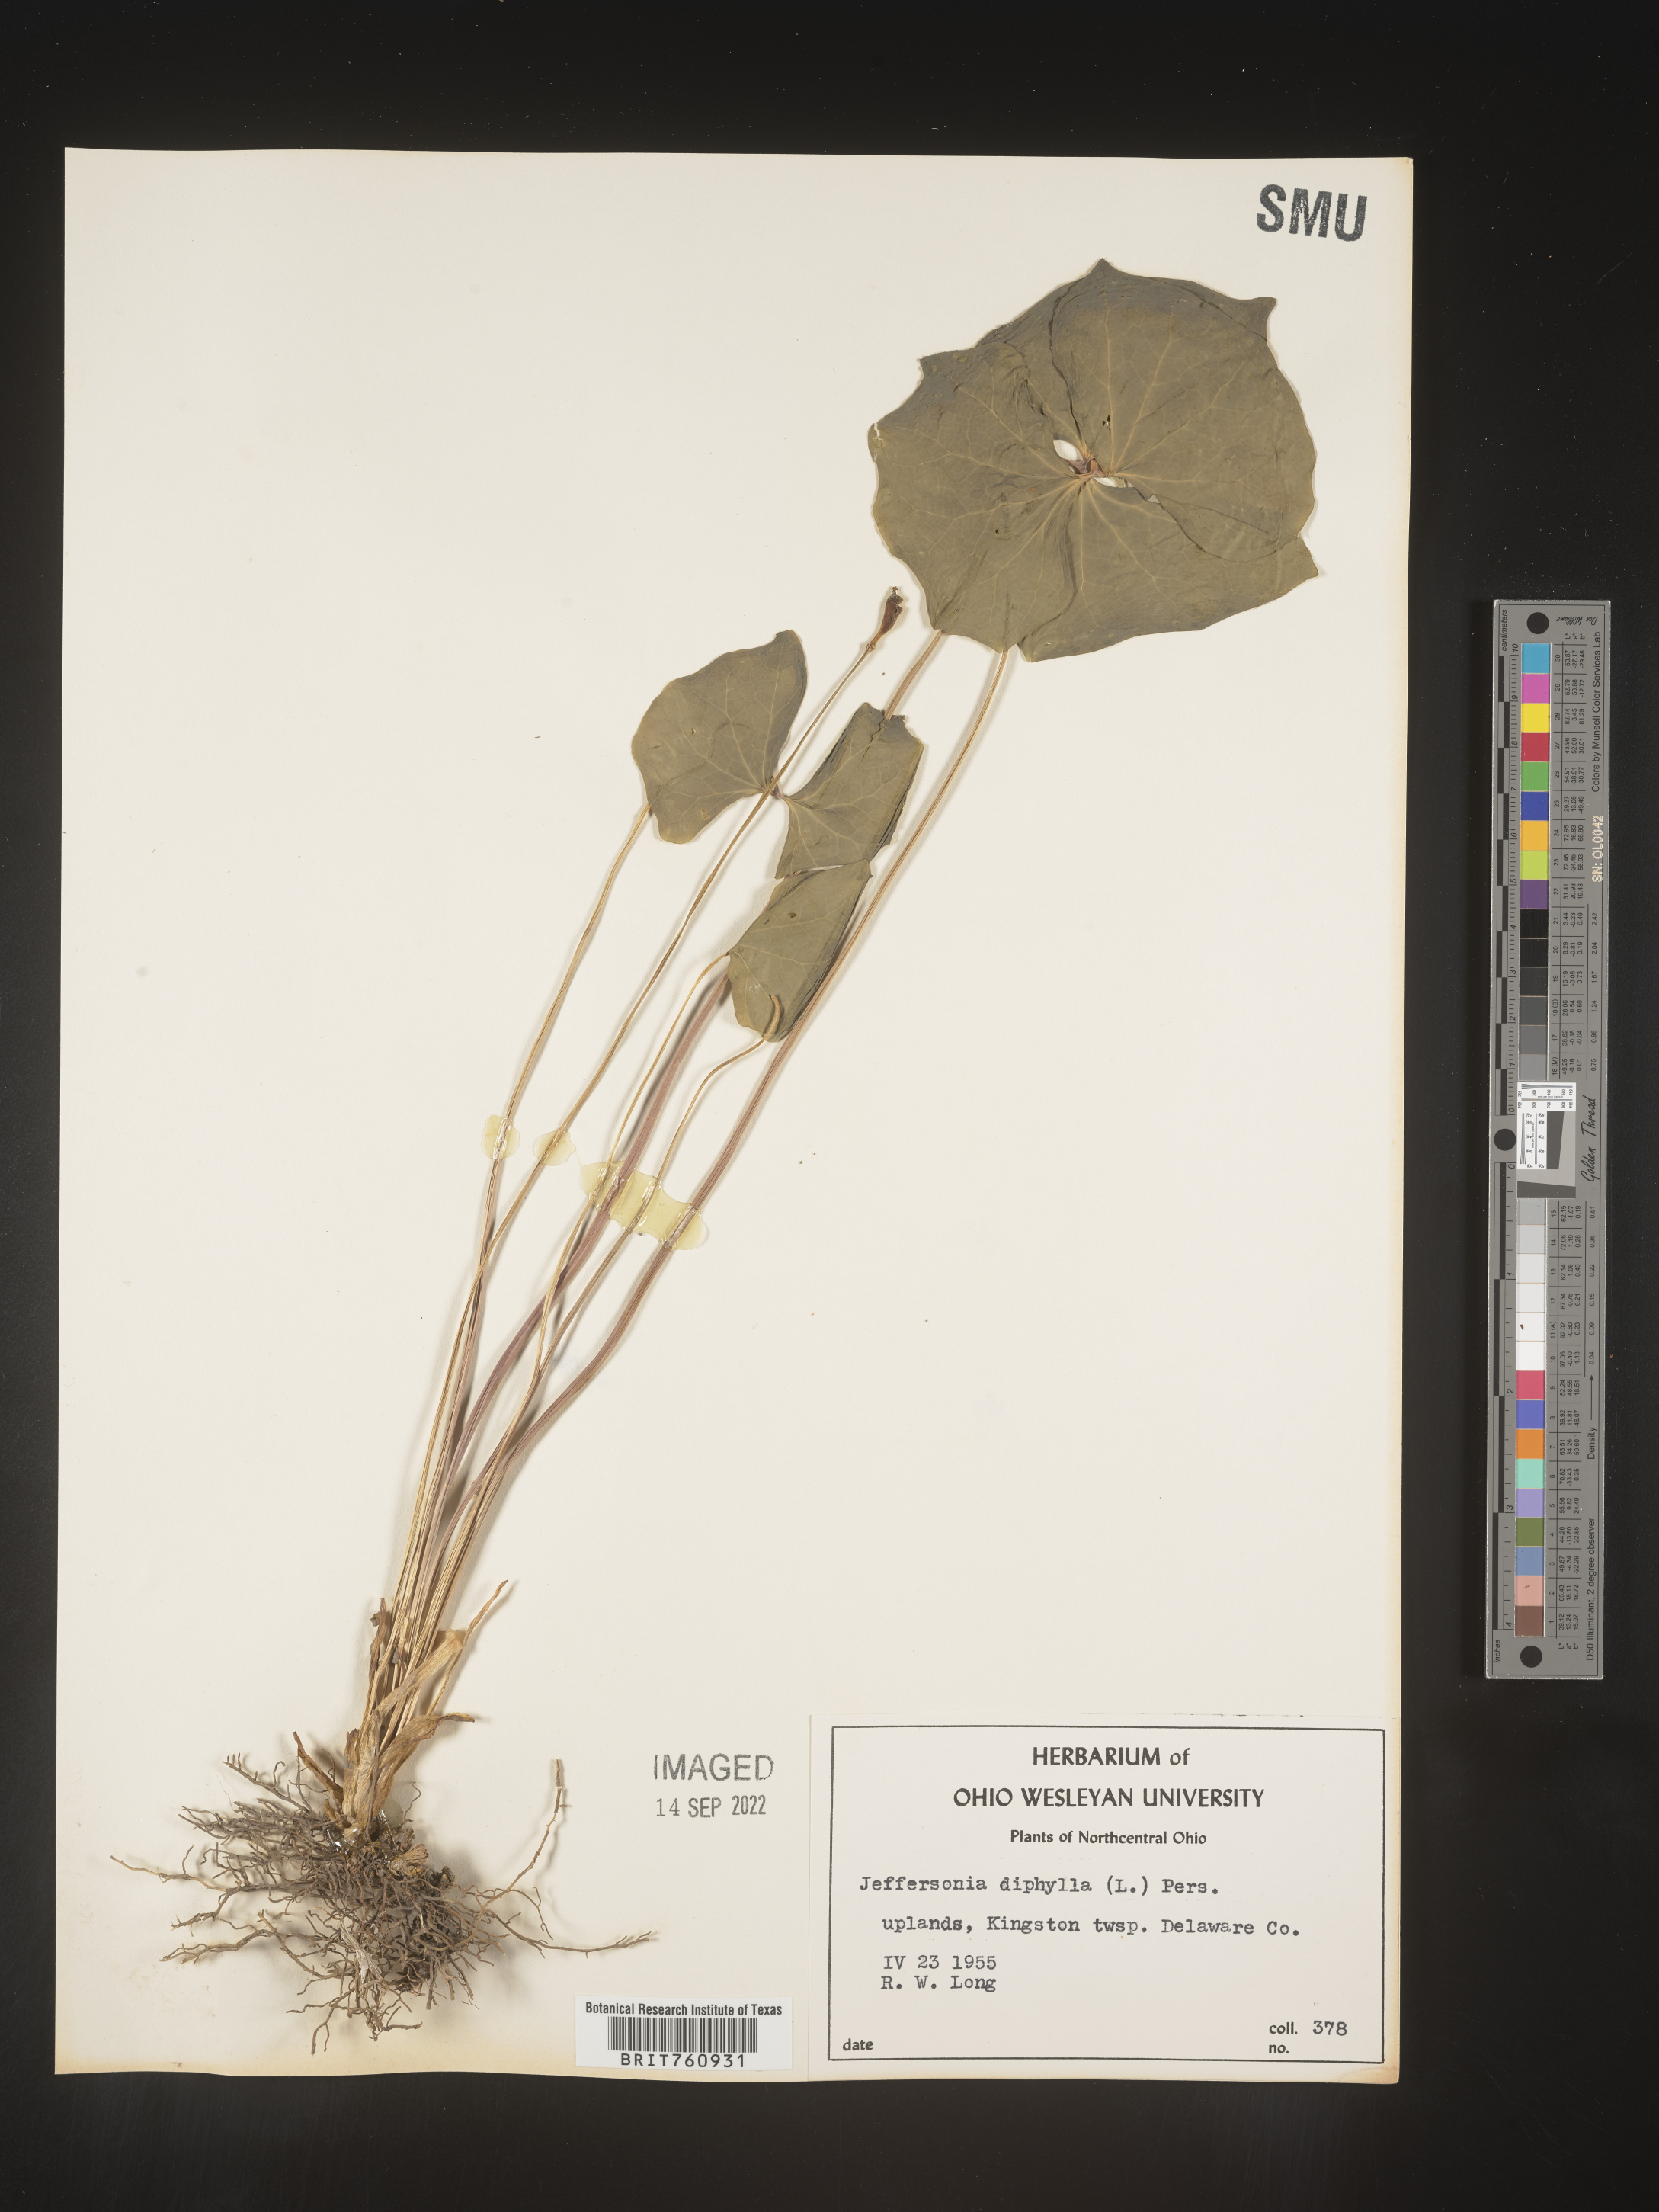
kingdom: Plantae
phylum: Tracheophyta
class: Magnoliopsida
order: Ranunculales
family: Berberidaceae
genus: Jeffersonia
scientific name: Jeffersonia
